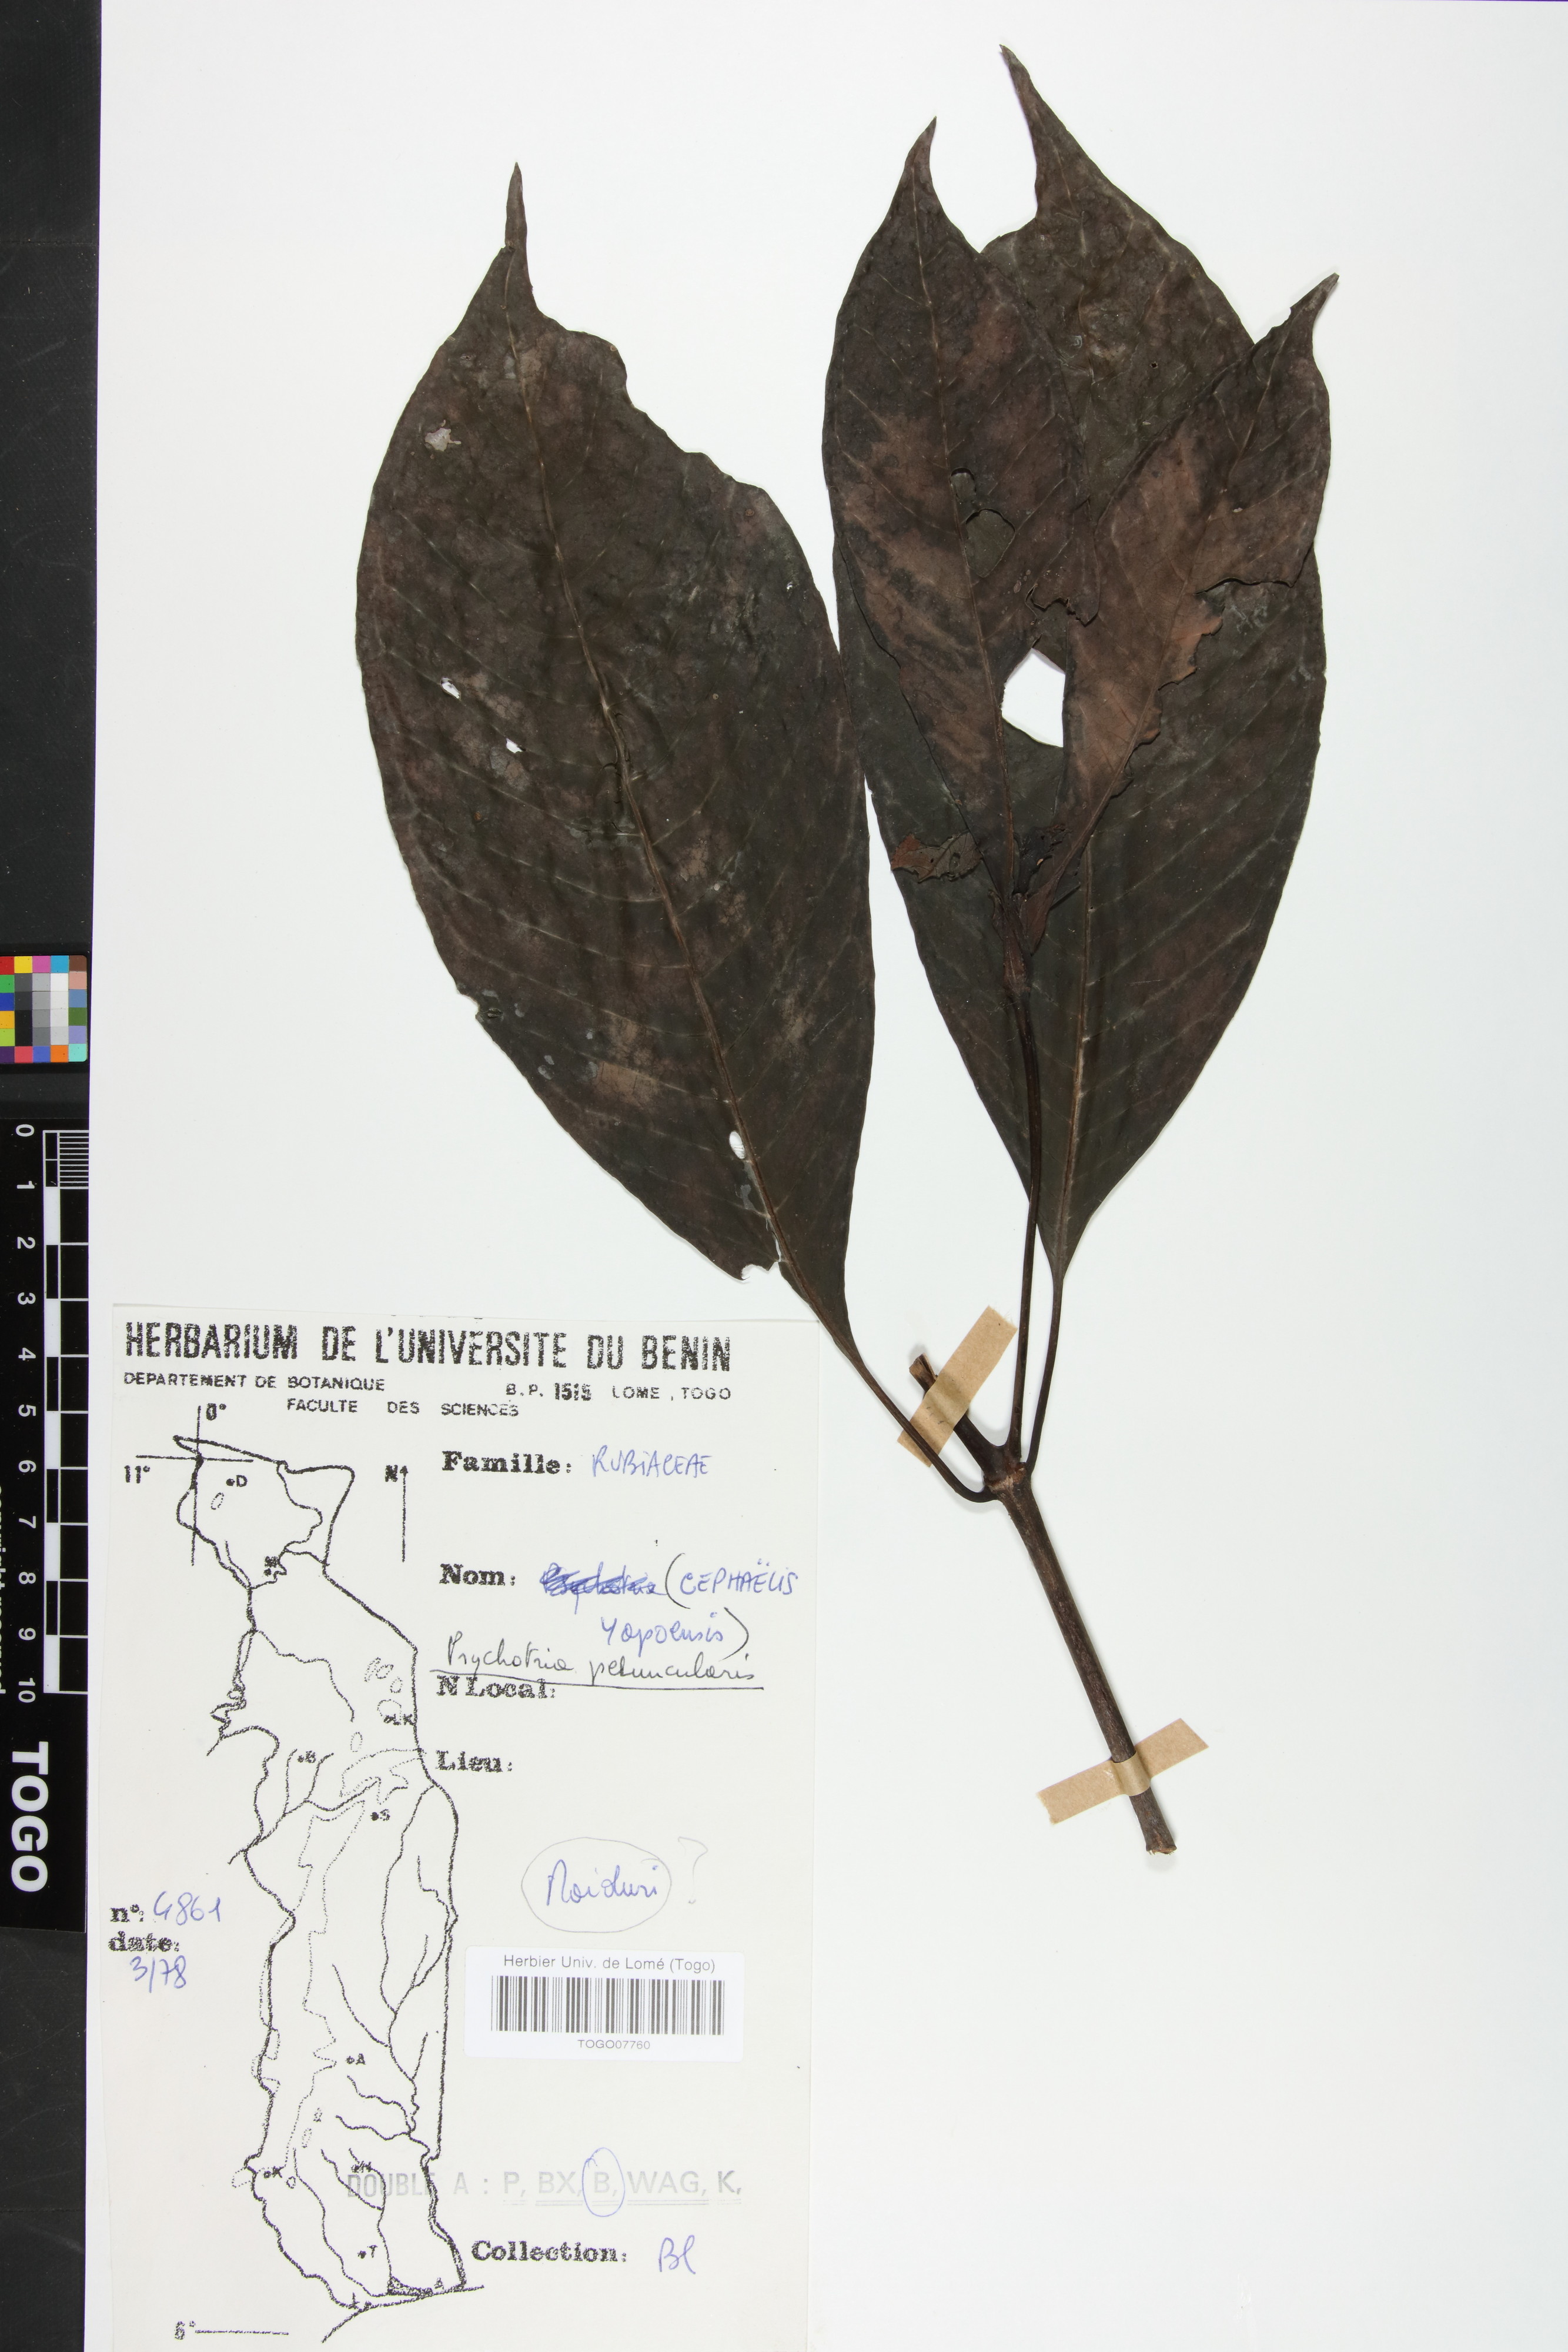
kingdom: Plantae
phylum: Tracheophyta
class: Magnoliopsida
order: Gentianales
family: Rubiaceae
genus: Psychotria
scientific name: Psychotria peduncularis
